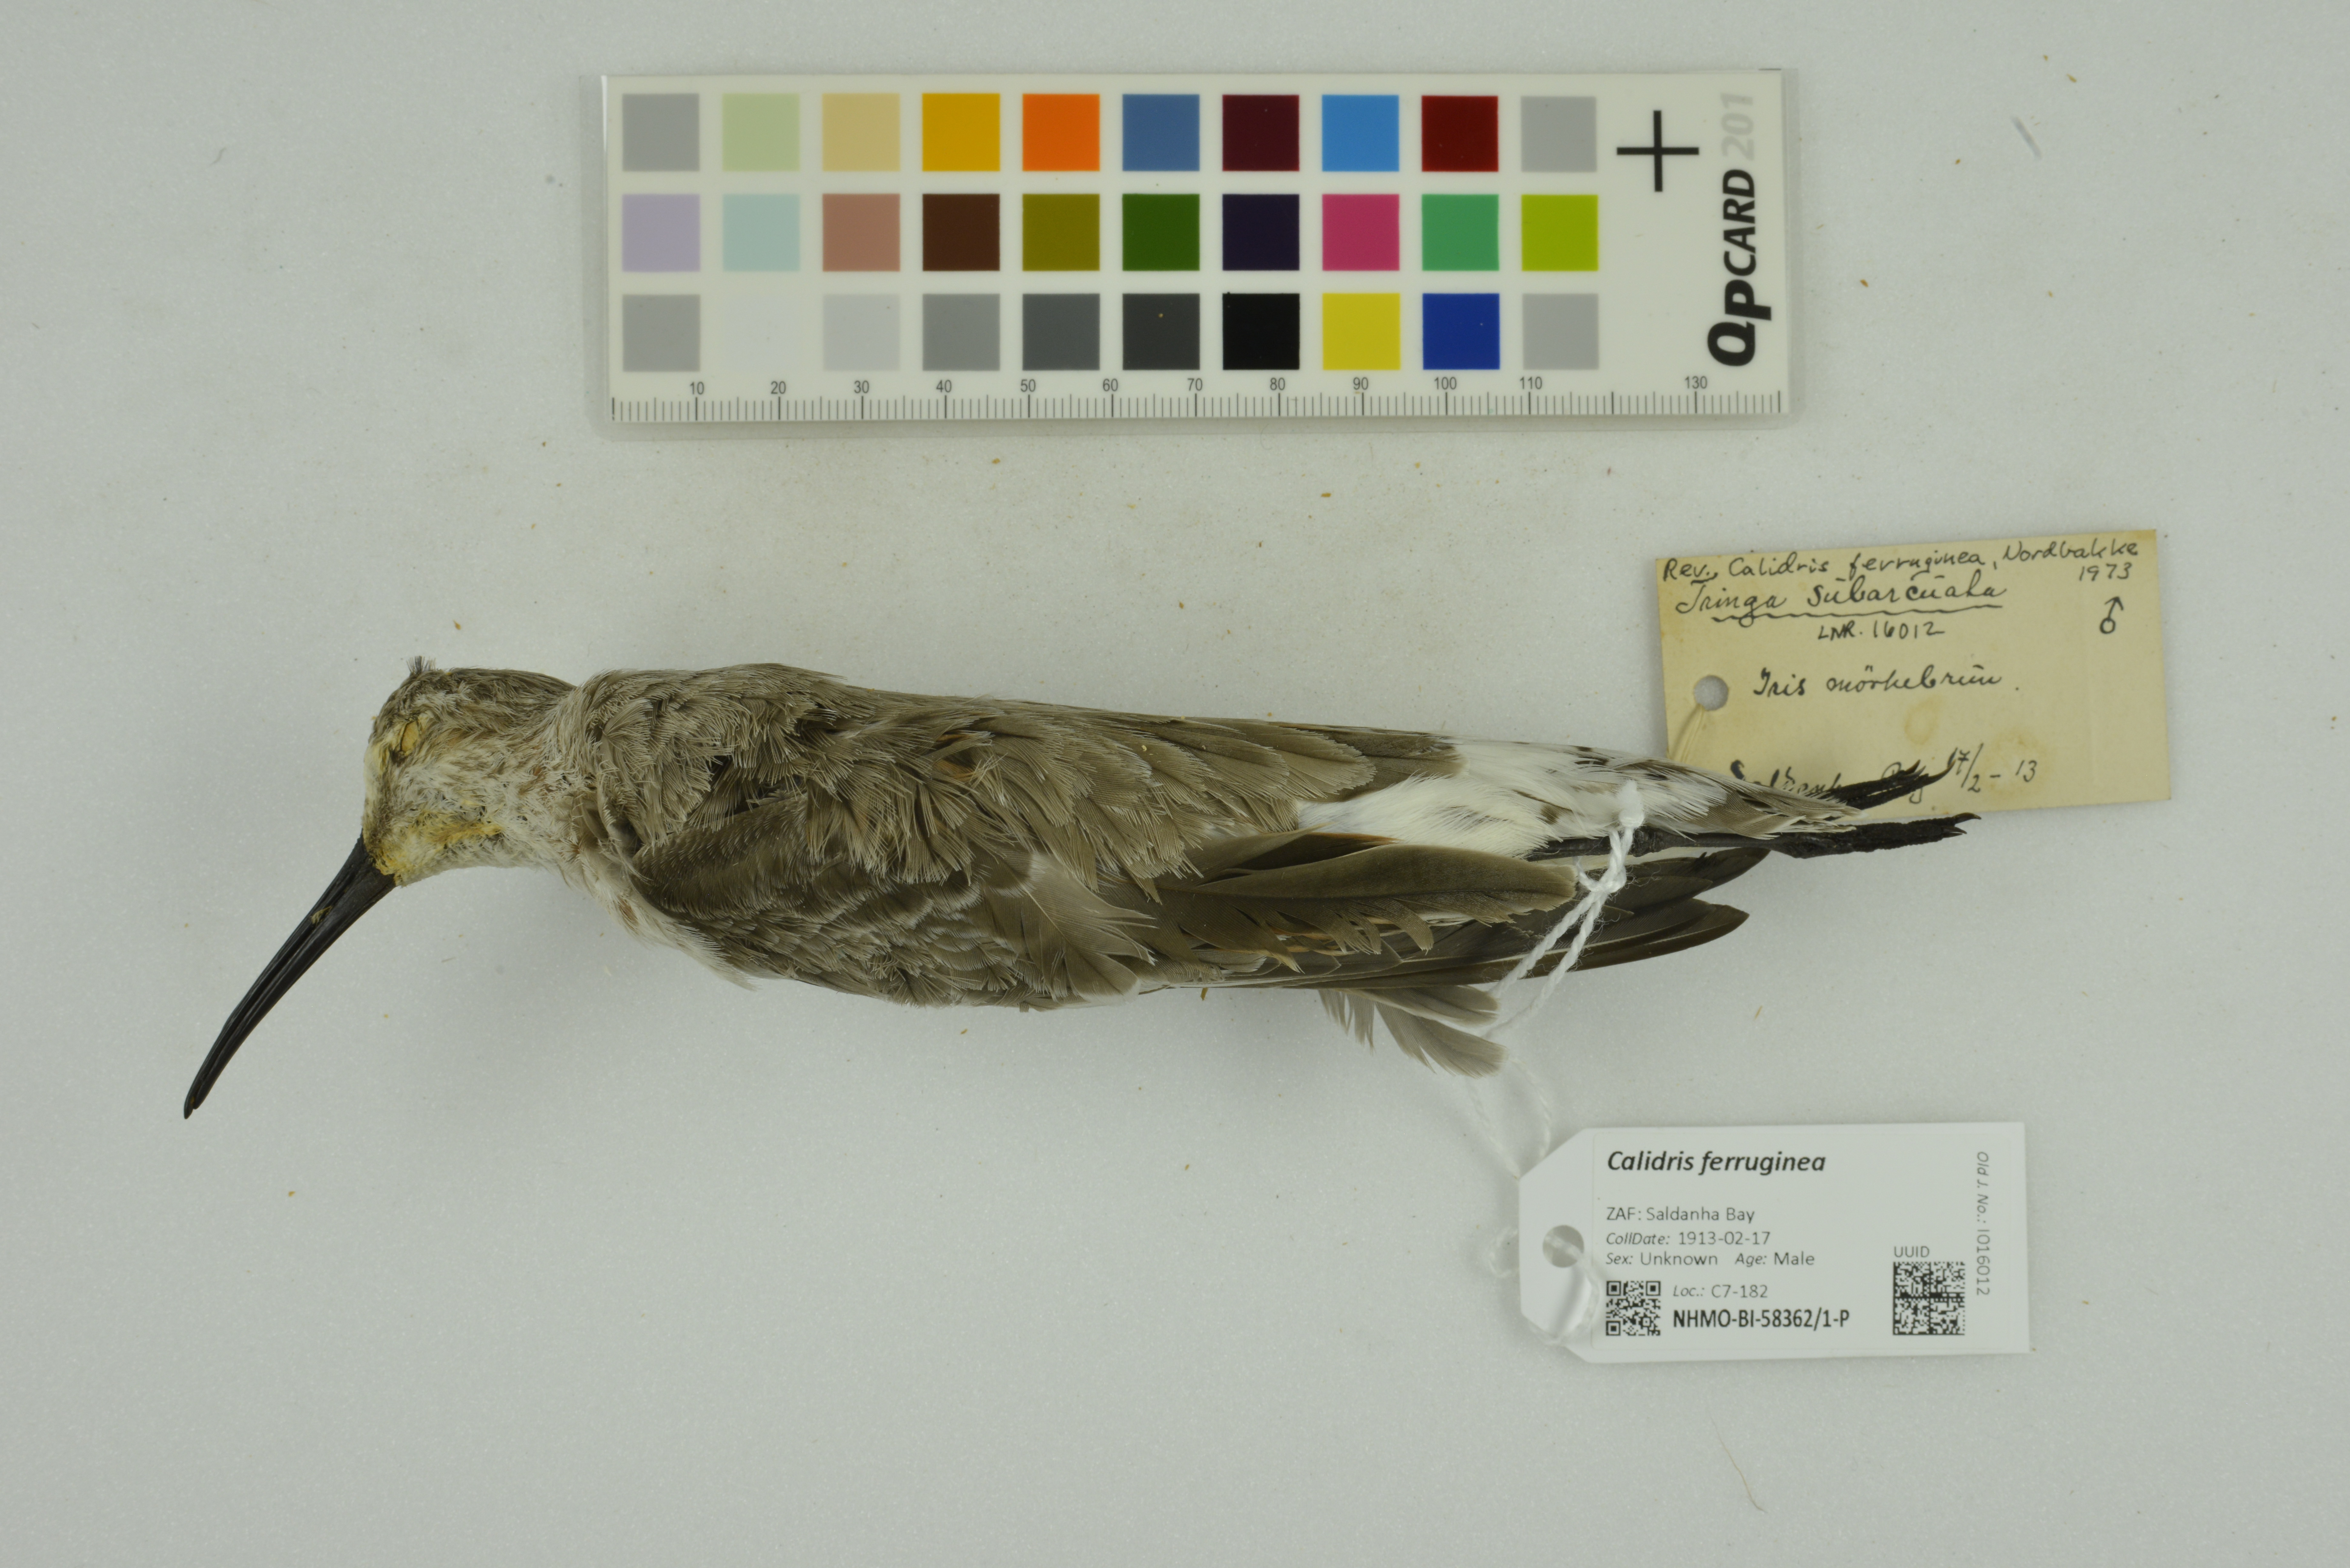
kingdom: Animalia
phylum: Chordata
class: Aves
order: Charadriiformes
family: Scolopacidae
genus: Calidris
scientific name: Calidris ferruginea
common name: Curlew sandpiper
